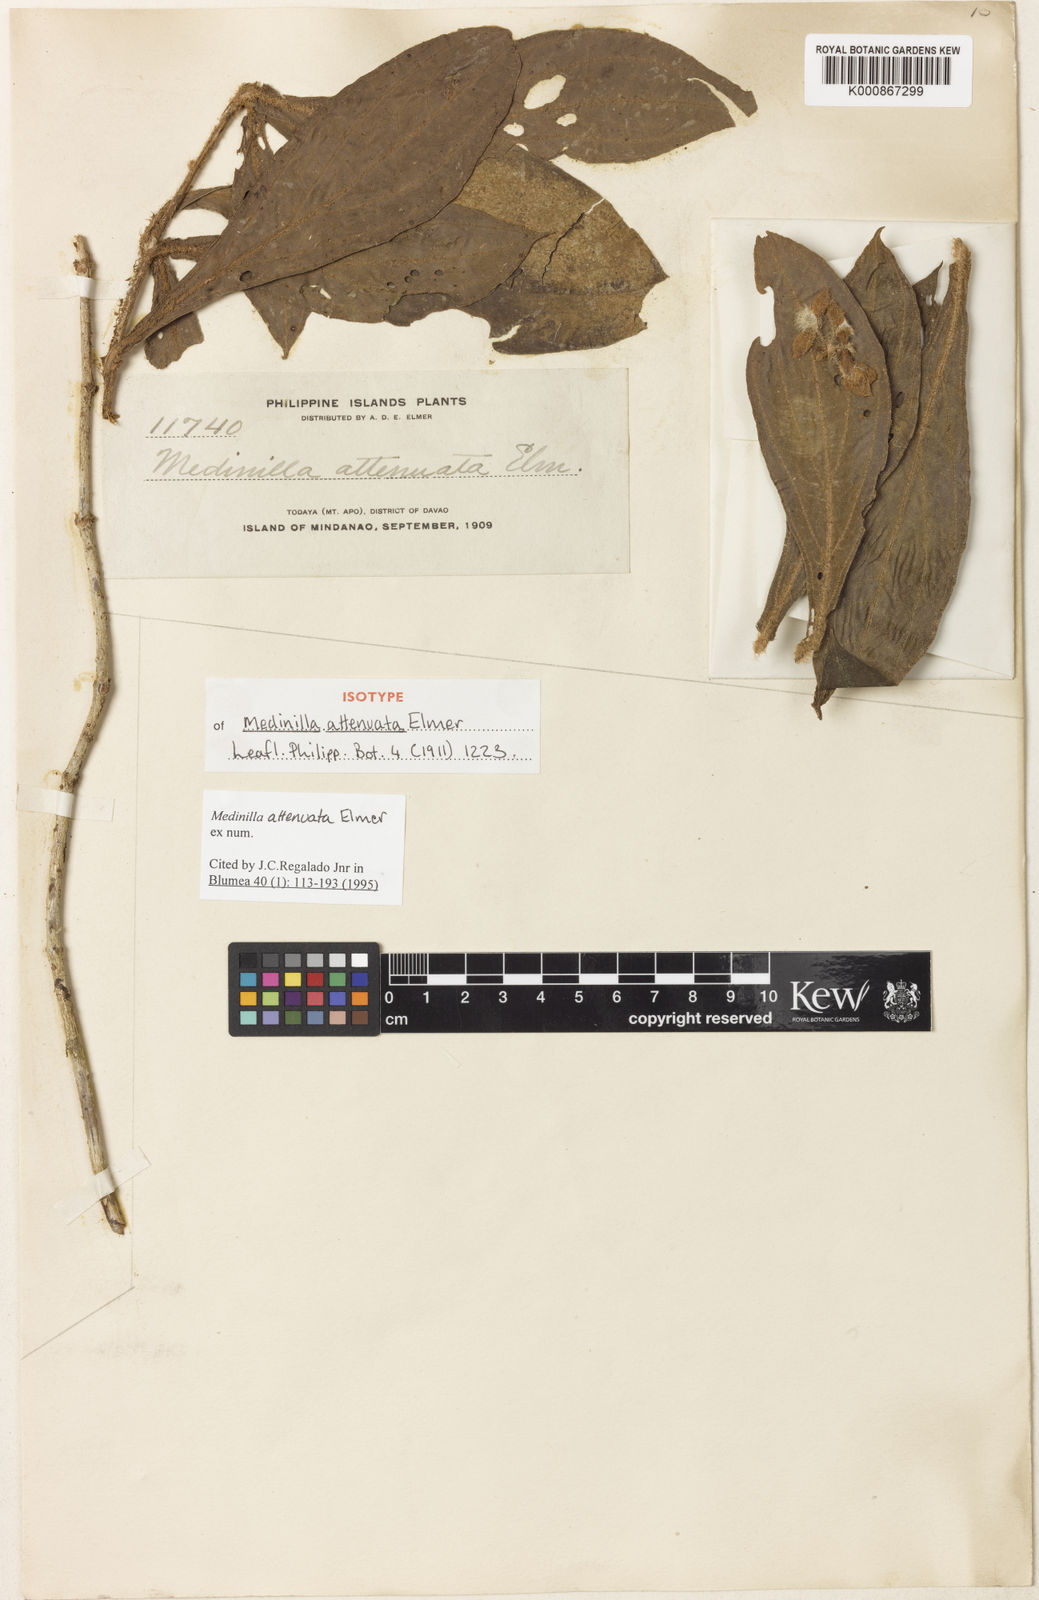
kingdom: Plantae
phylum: Tracheophyta
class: Magnoliopsida
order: Myrtales
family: Melastomataceae
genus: Medinilla
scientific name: Medinilla erythrotricha
